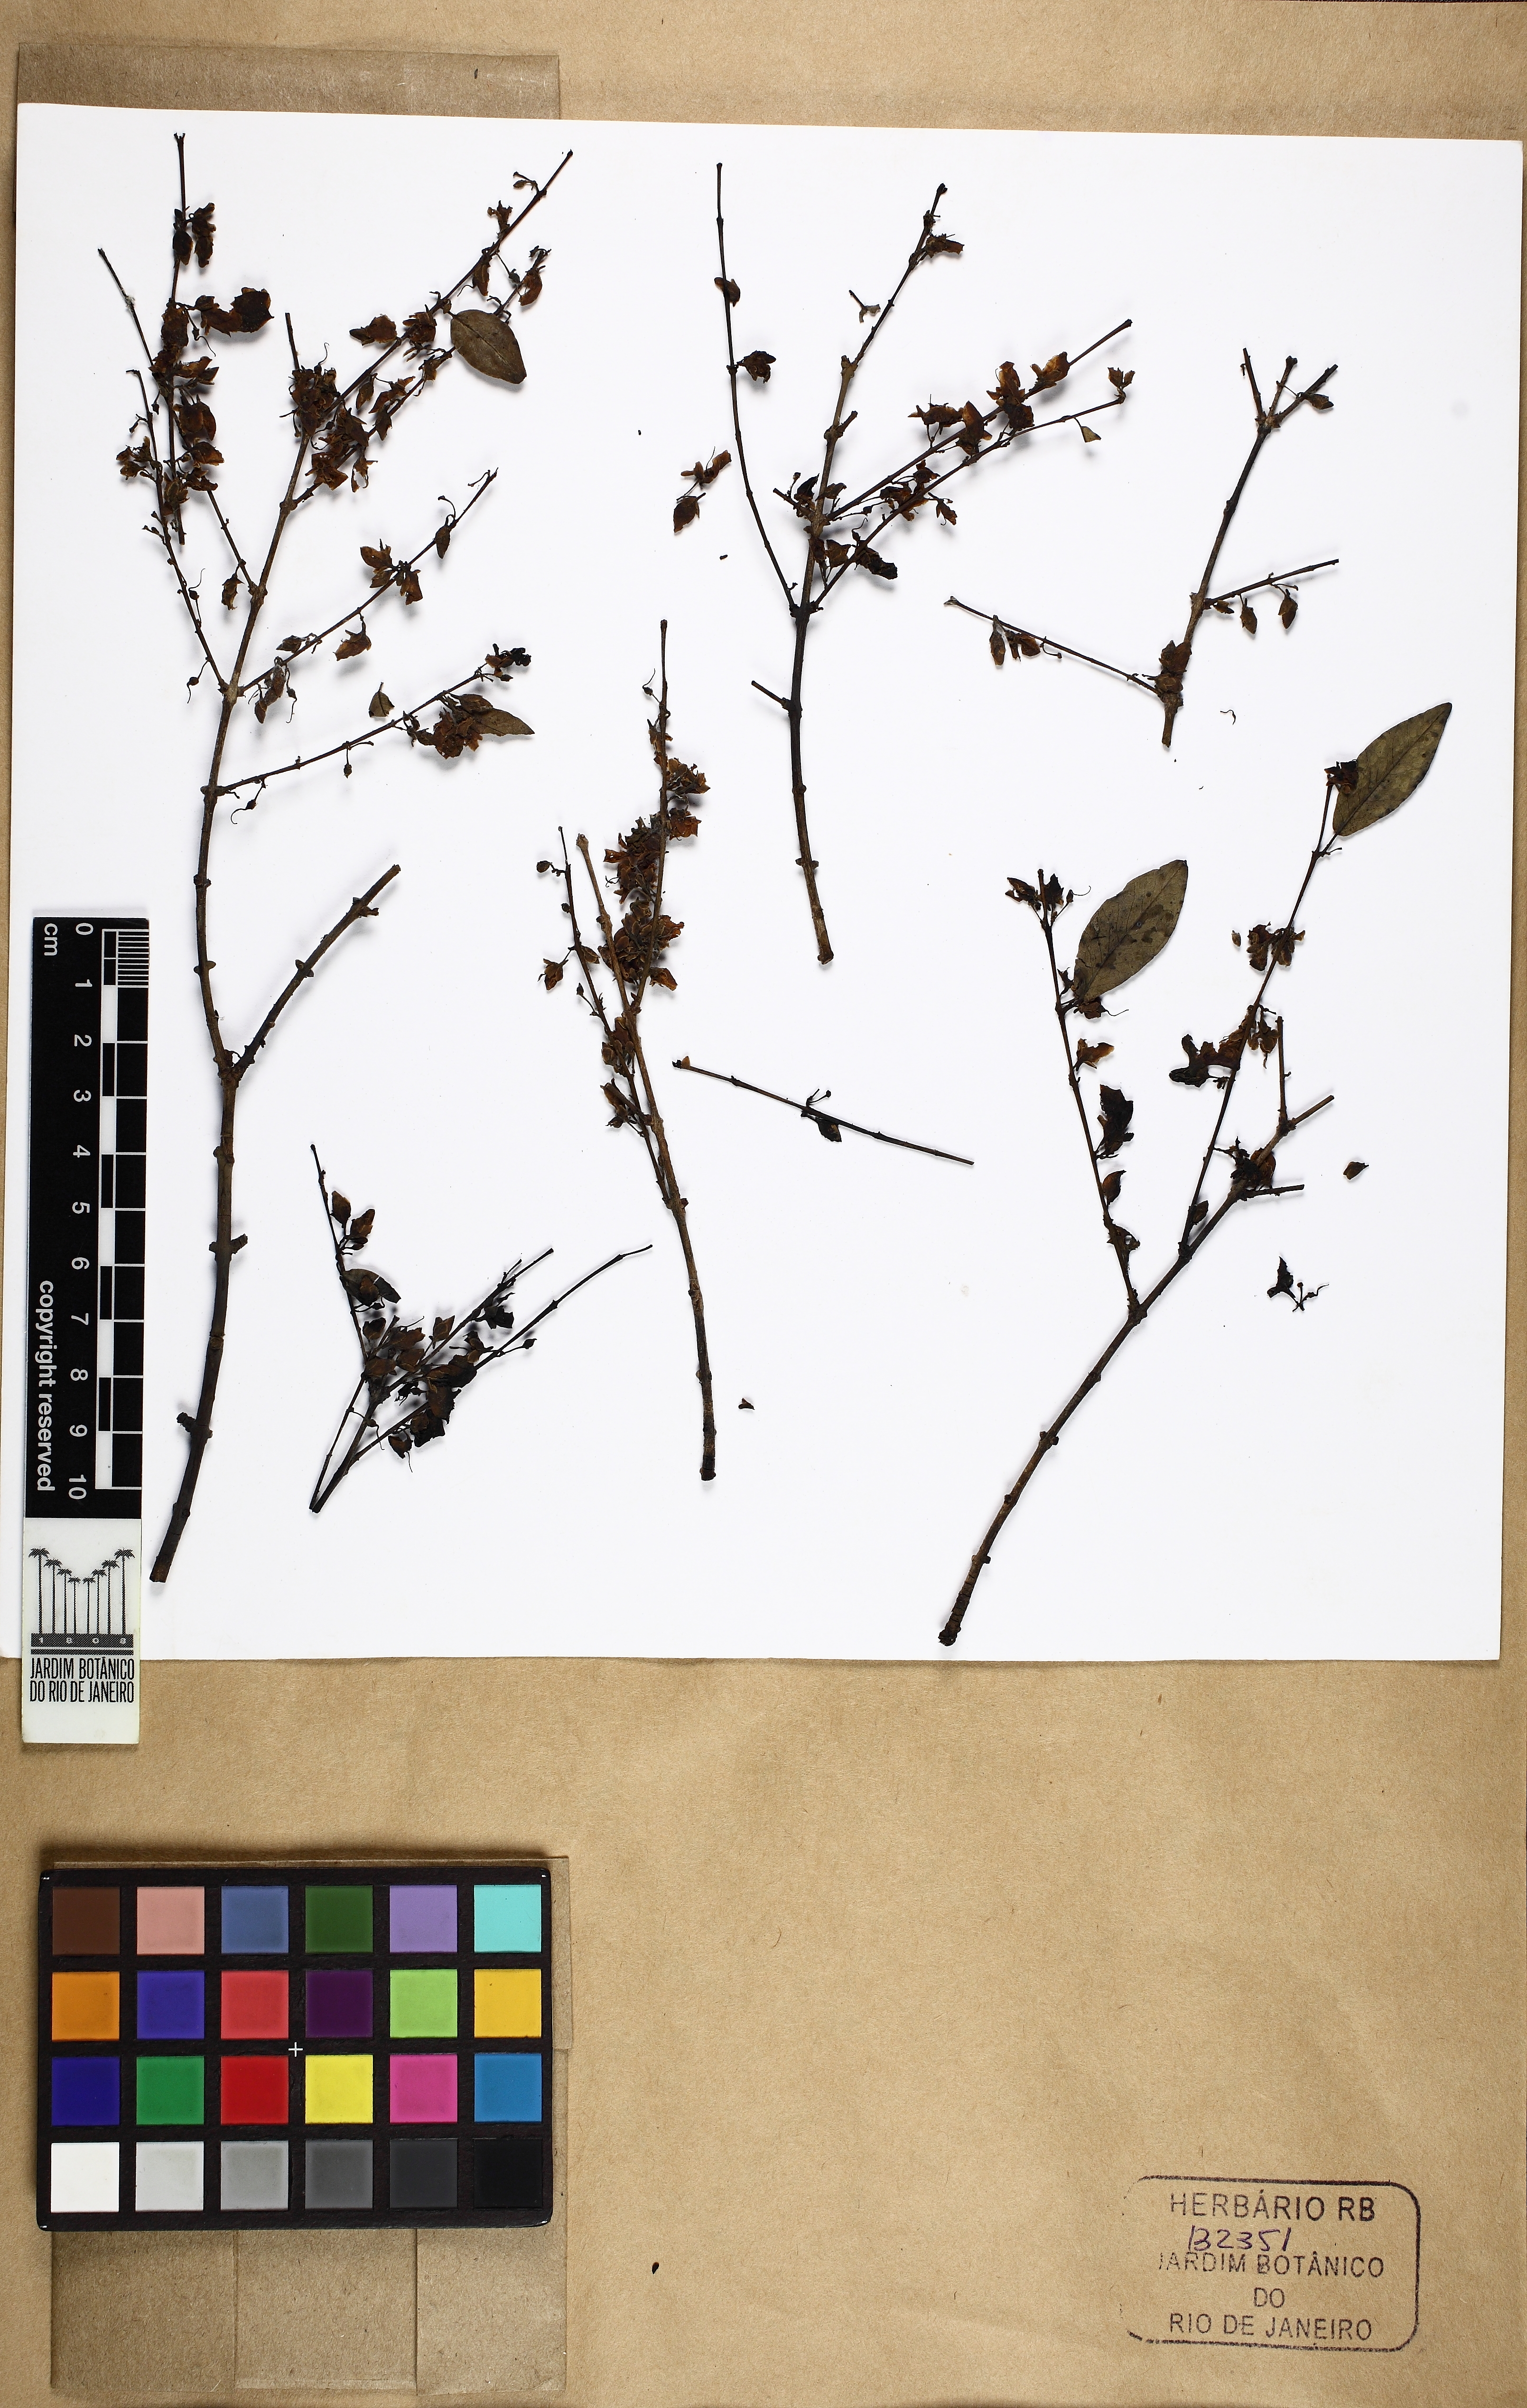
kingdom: Plantae
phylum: Tracheophyta
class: Magnoliopsida
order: Myrtales
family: Vochysiaceae
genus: Callisthene
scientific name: Callisthene dryadum
